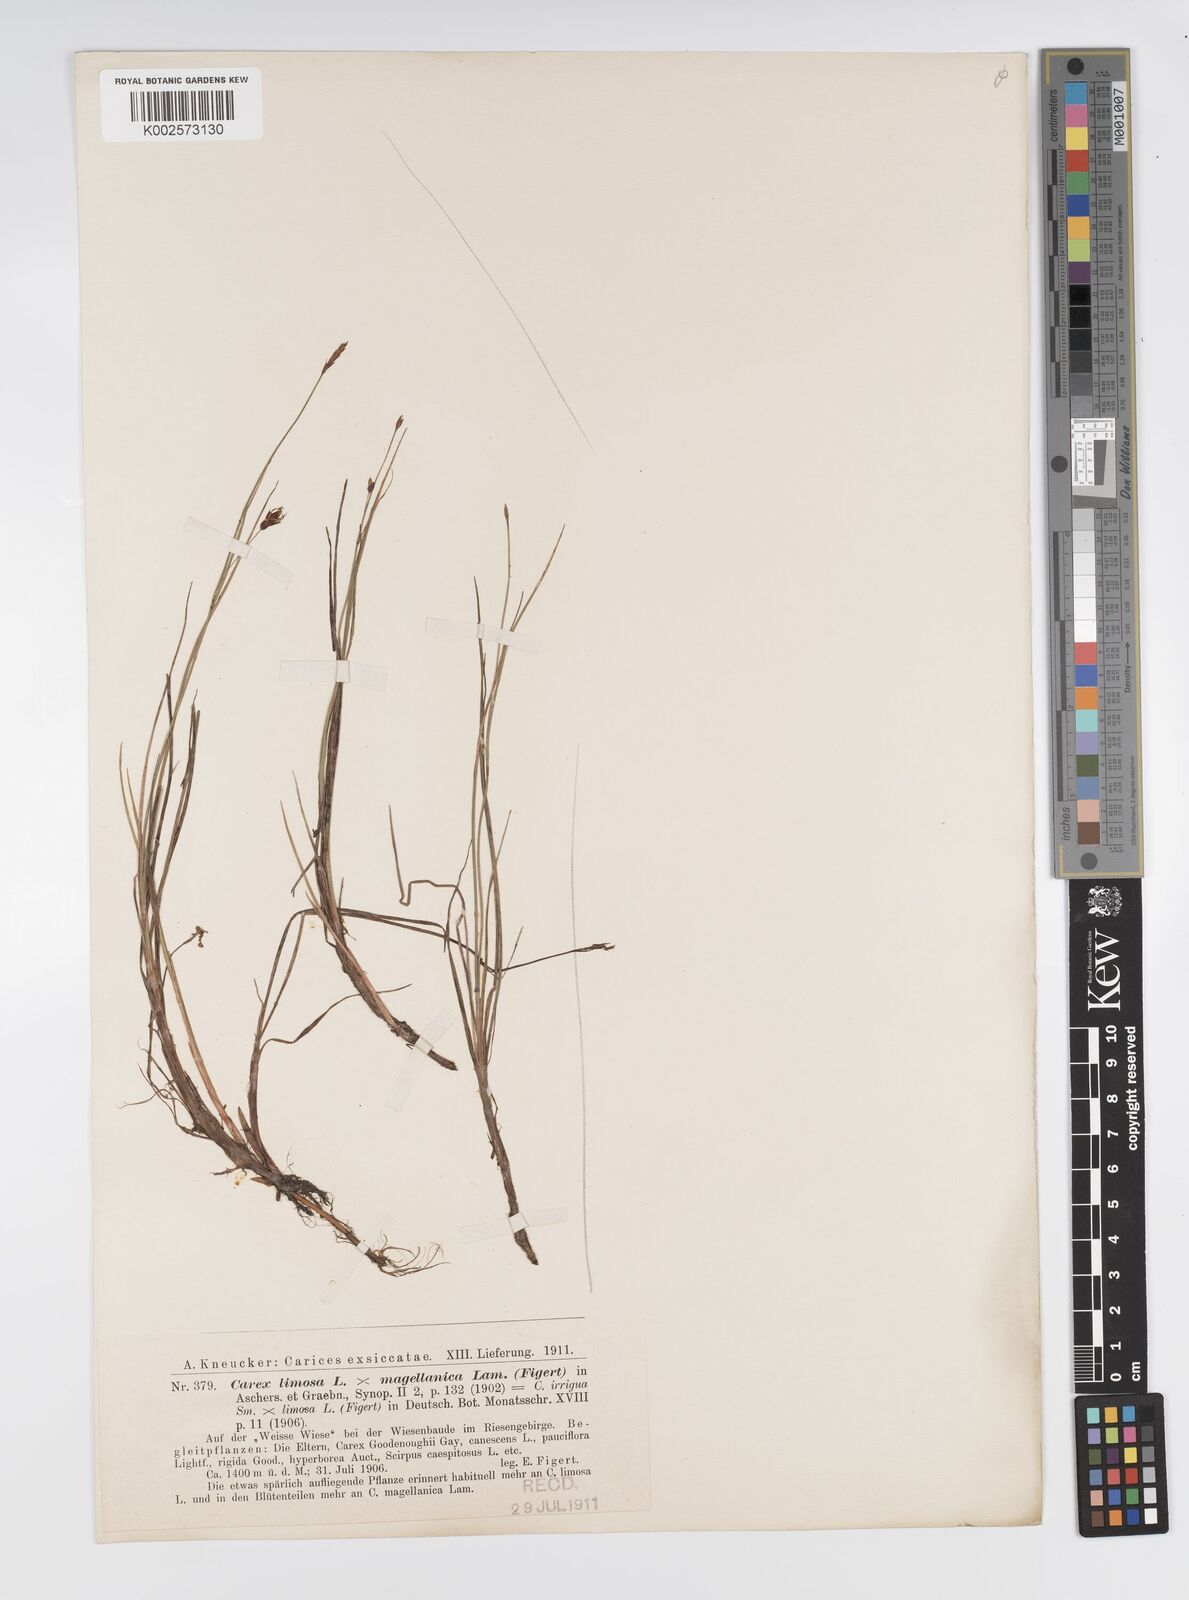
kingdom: Plantae
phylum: Tracheophyta
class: Liliopsida
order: Poales
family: Cyperaceae
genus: Carex
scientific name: Carex limosa
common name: Bog sedge
